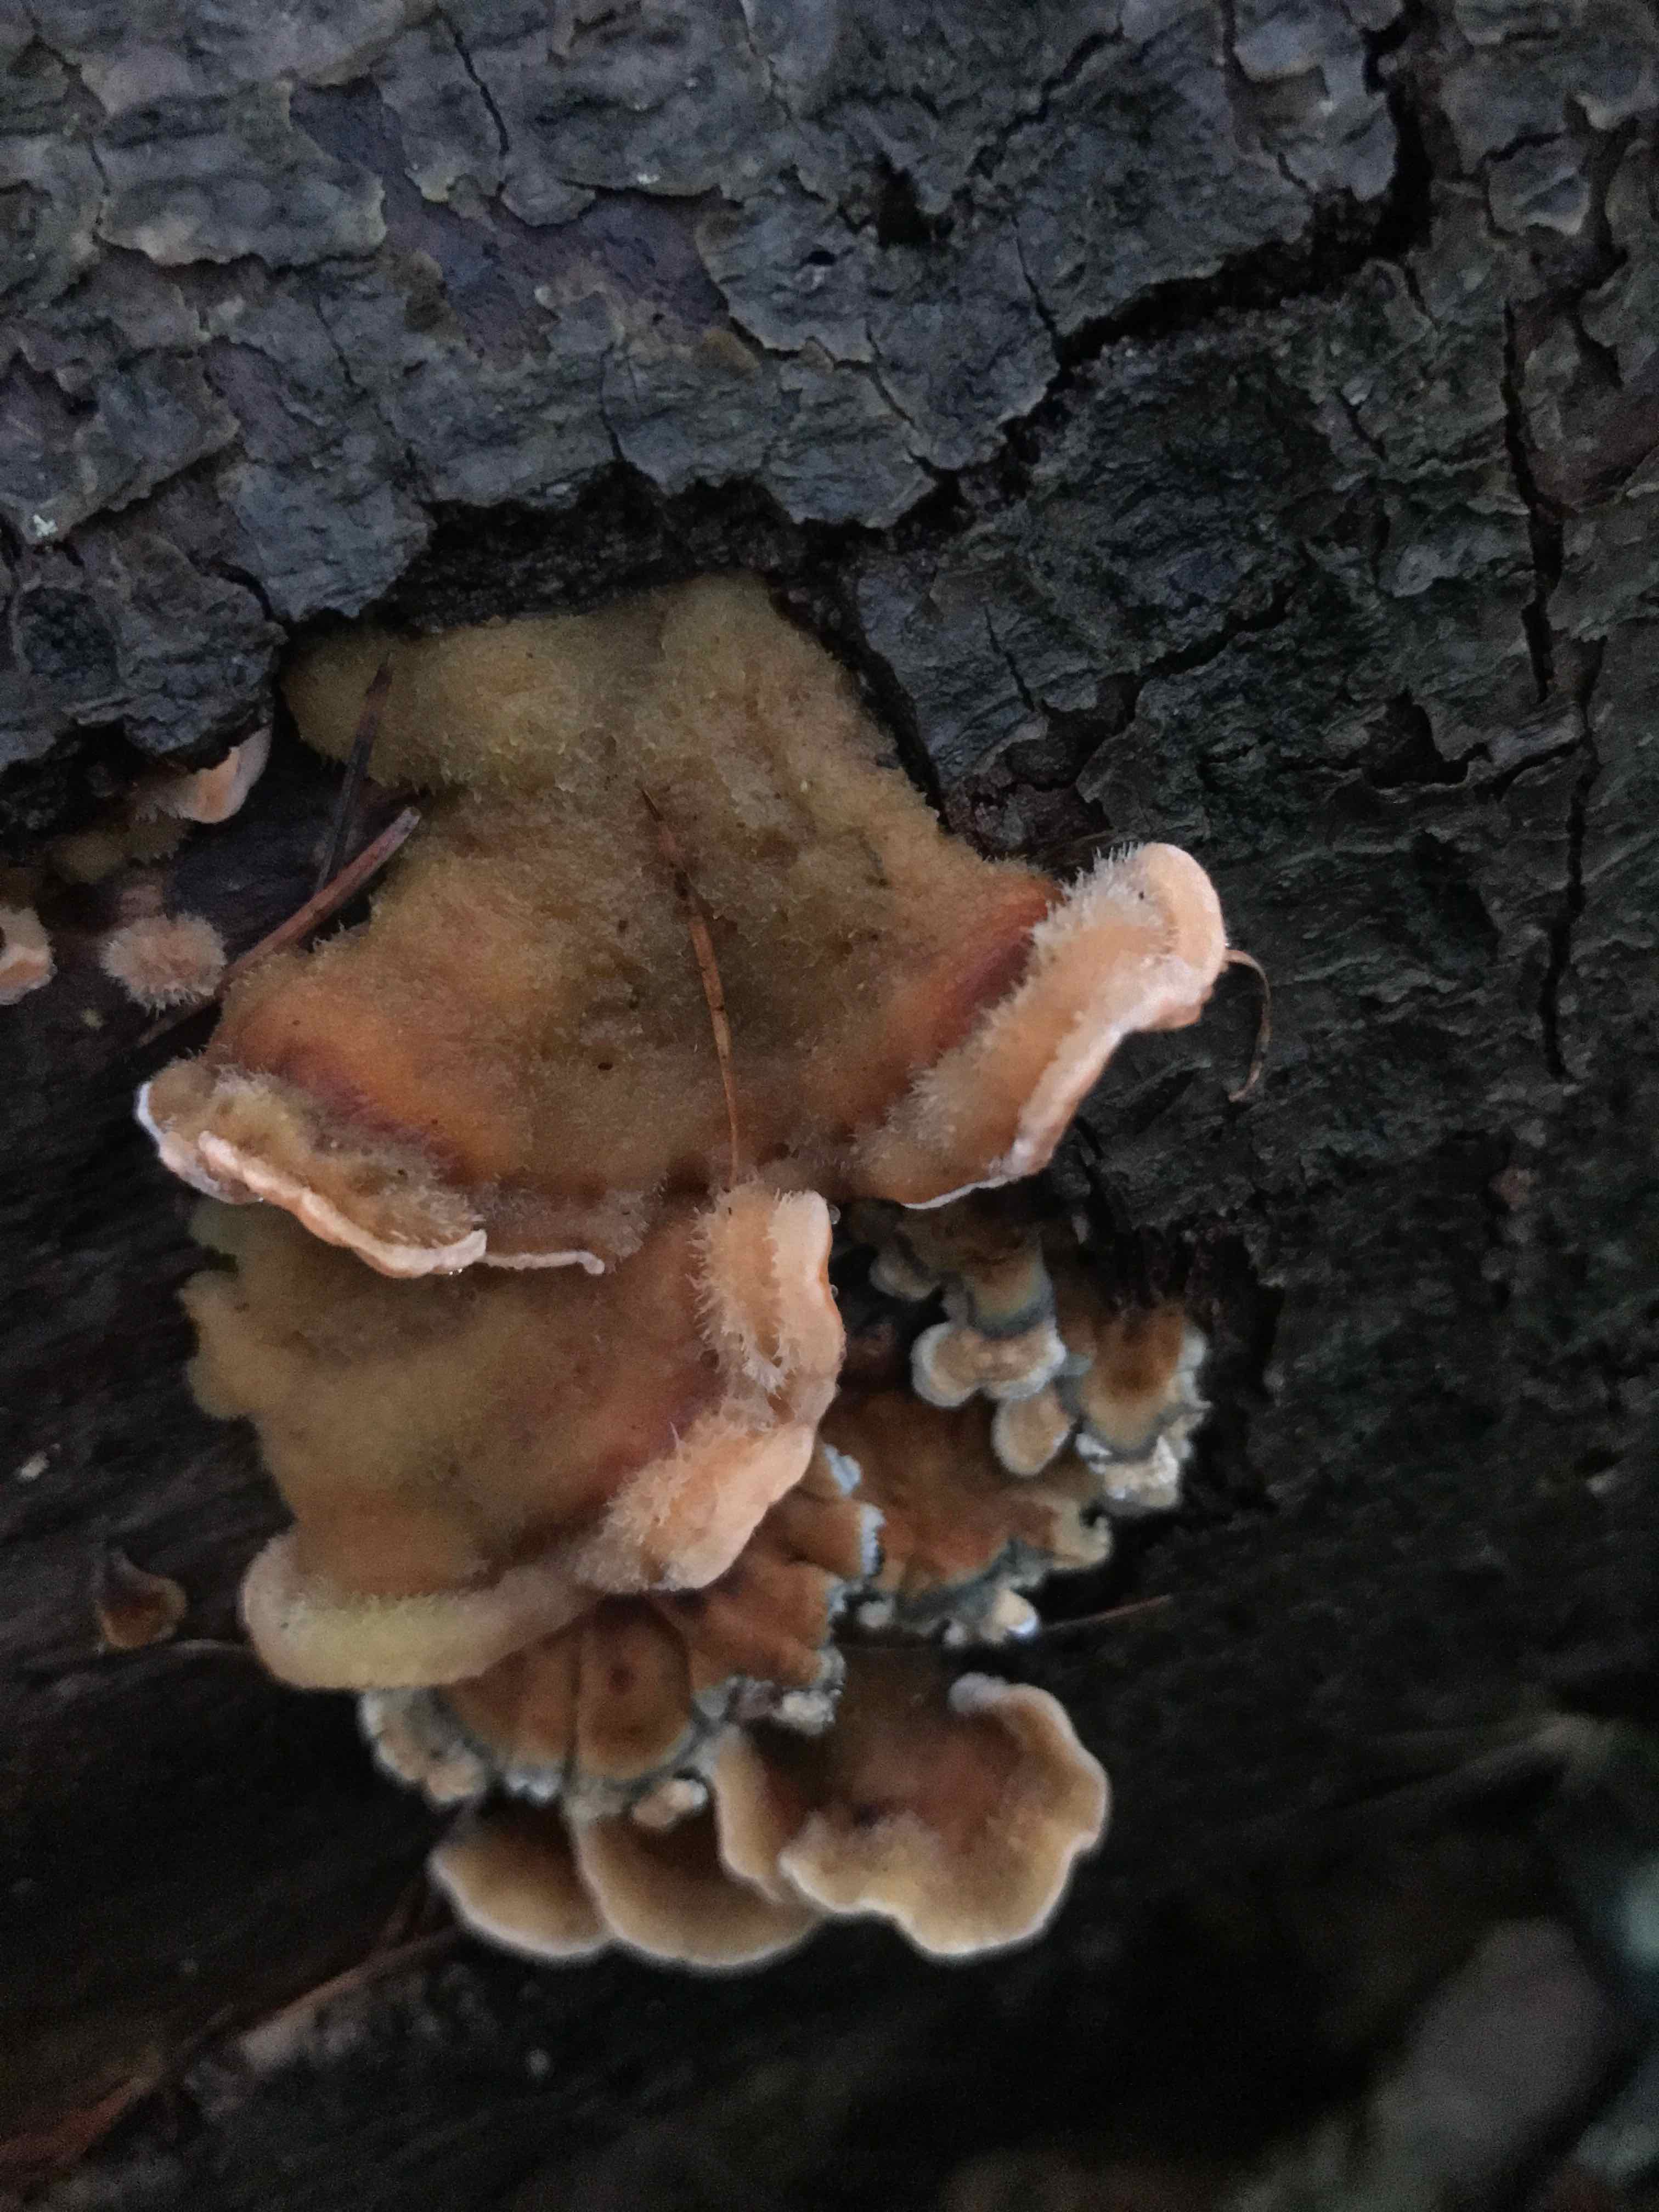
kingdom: Fungi
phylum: Basidiomycota
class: Agaricomycetes
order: Russulales
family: Stereaceae
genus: Stereum
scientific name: Stereum hirsutum
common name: håret lædersvamp
